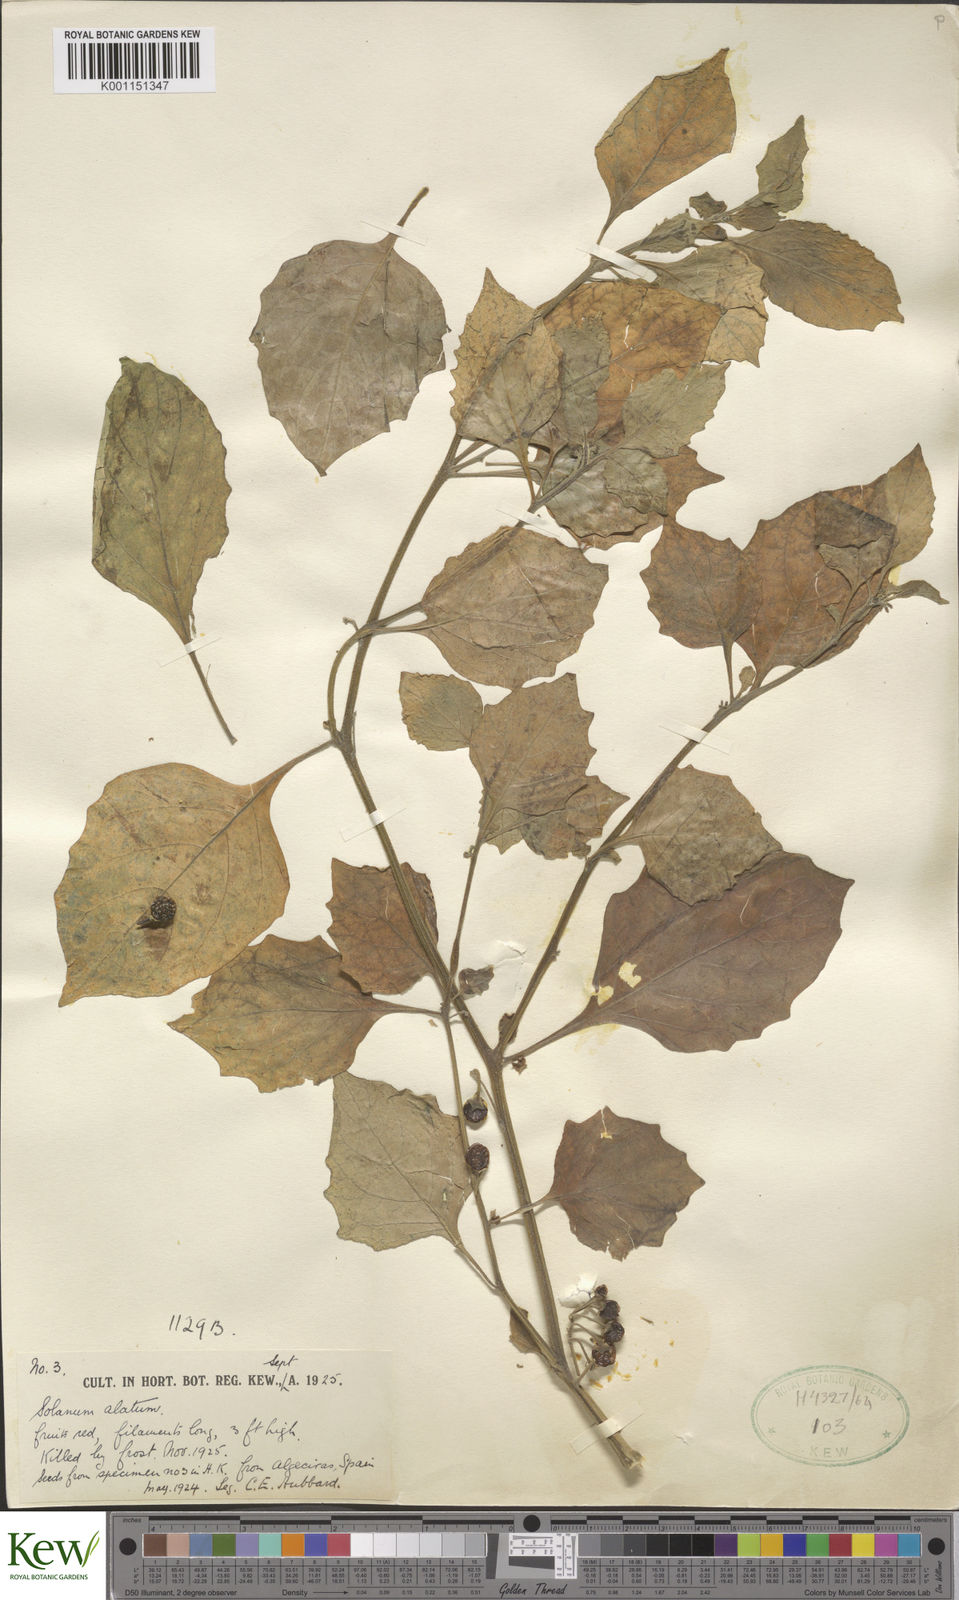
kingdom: Plantae
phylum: Tracheophyta
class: Magnoliopsida
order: Solanales
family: Solanaceae
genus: Solanum
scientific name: Solanum alatum
